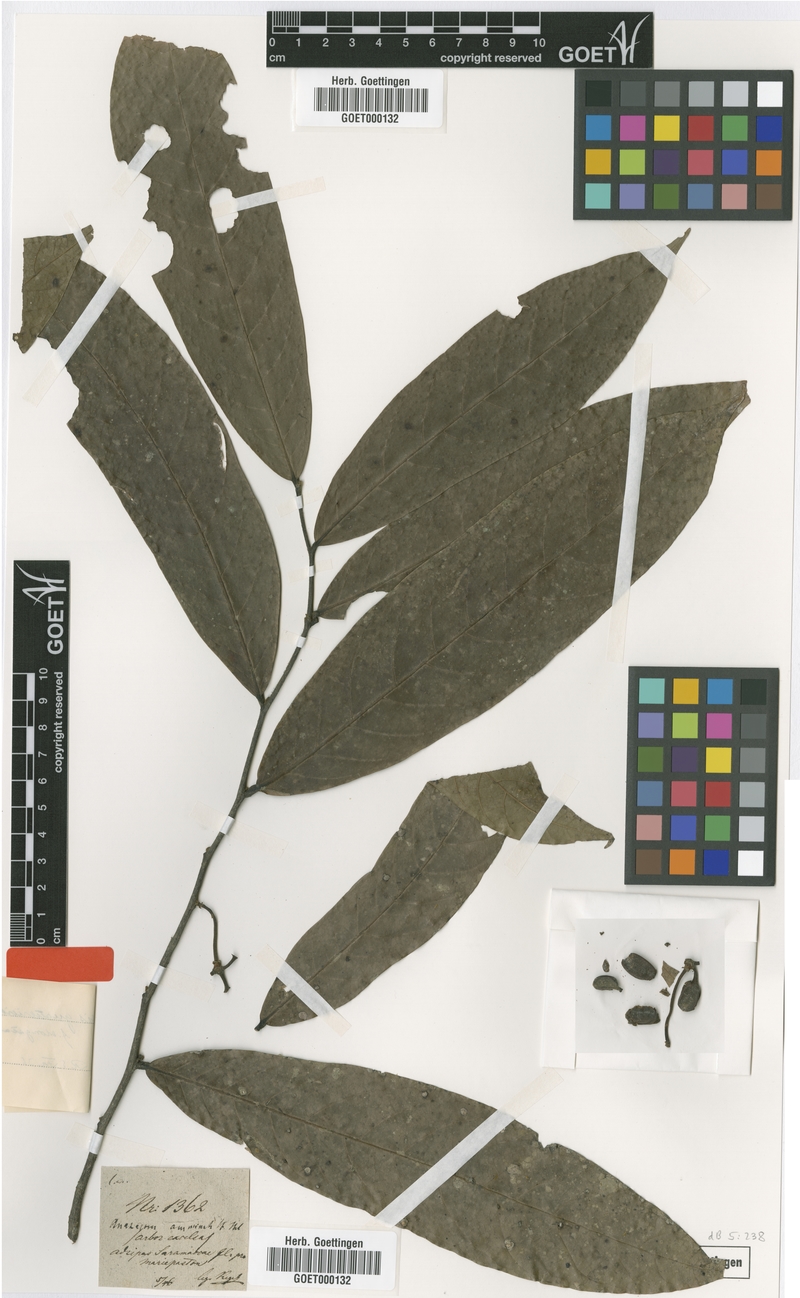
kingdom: Plantae
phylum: Tracheophyta
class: Magnoliopsida
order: Magnoliales
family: Annonaceae
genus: Unonopsis
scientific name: Unonopsis guatterioides
